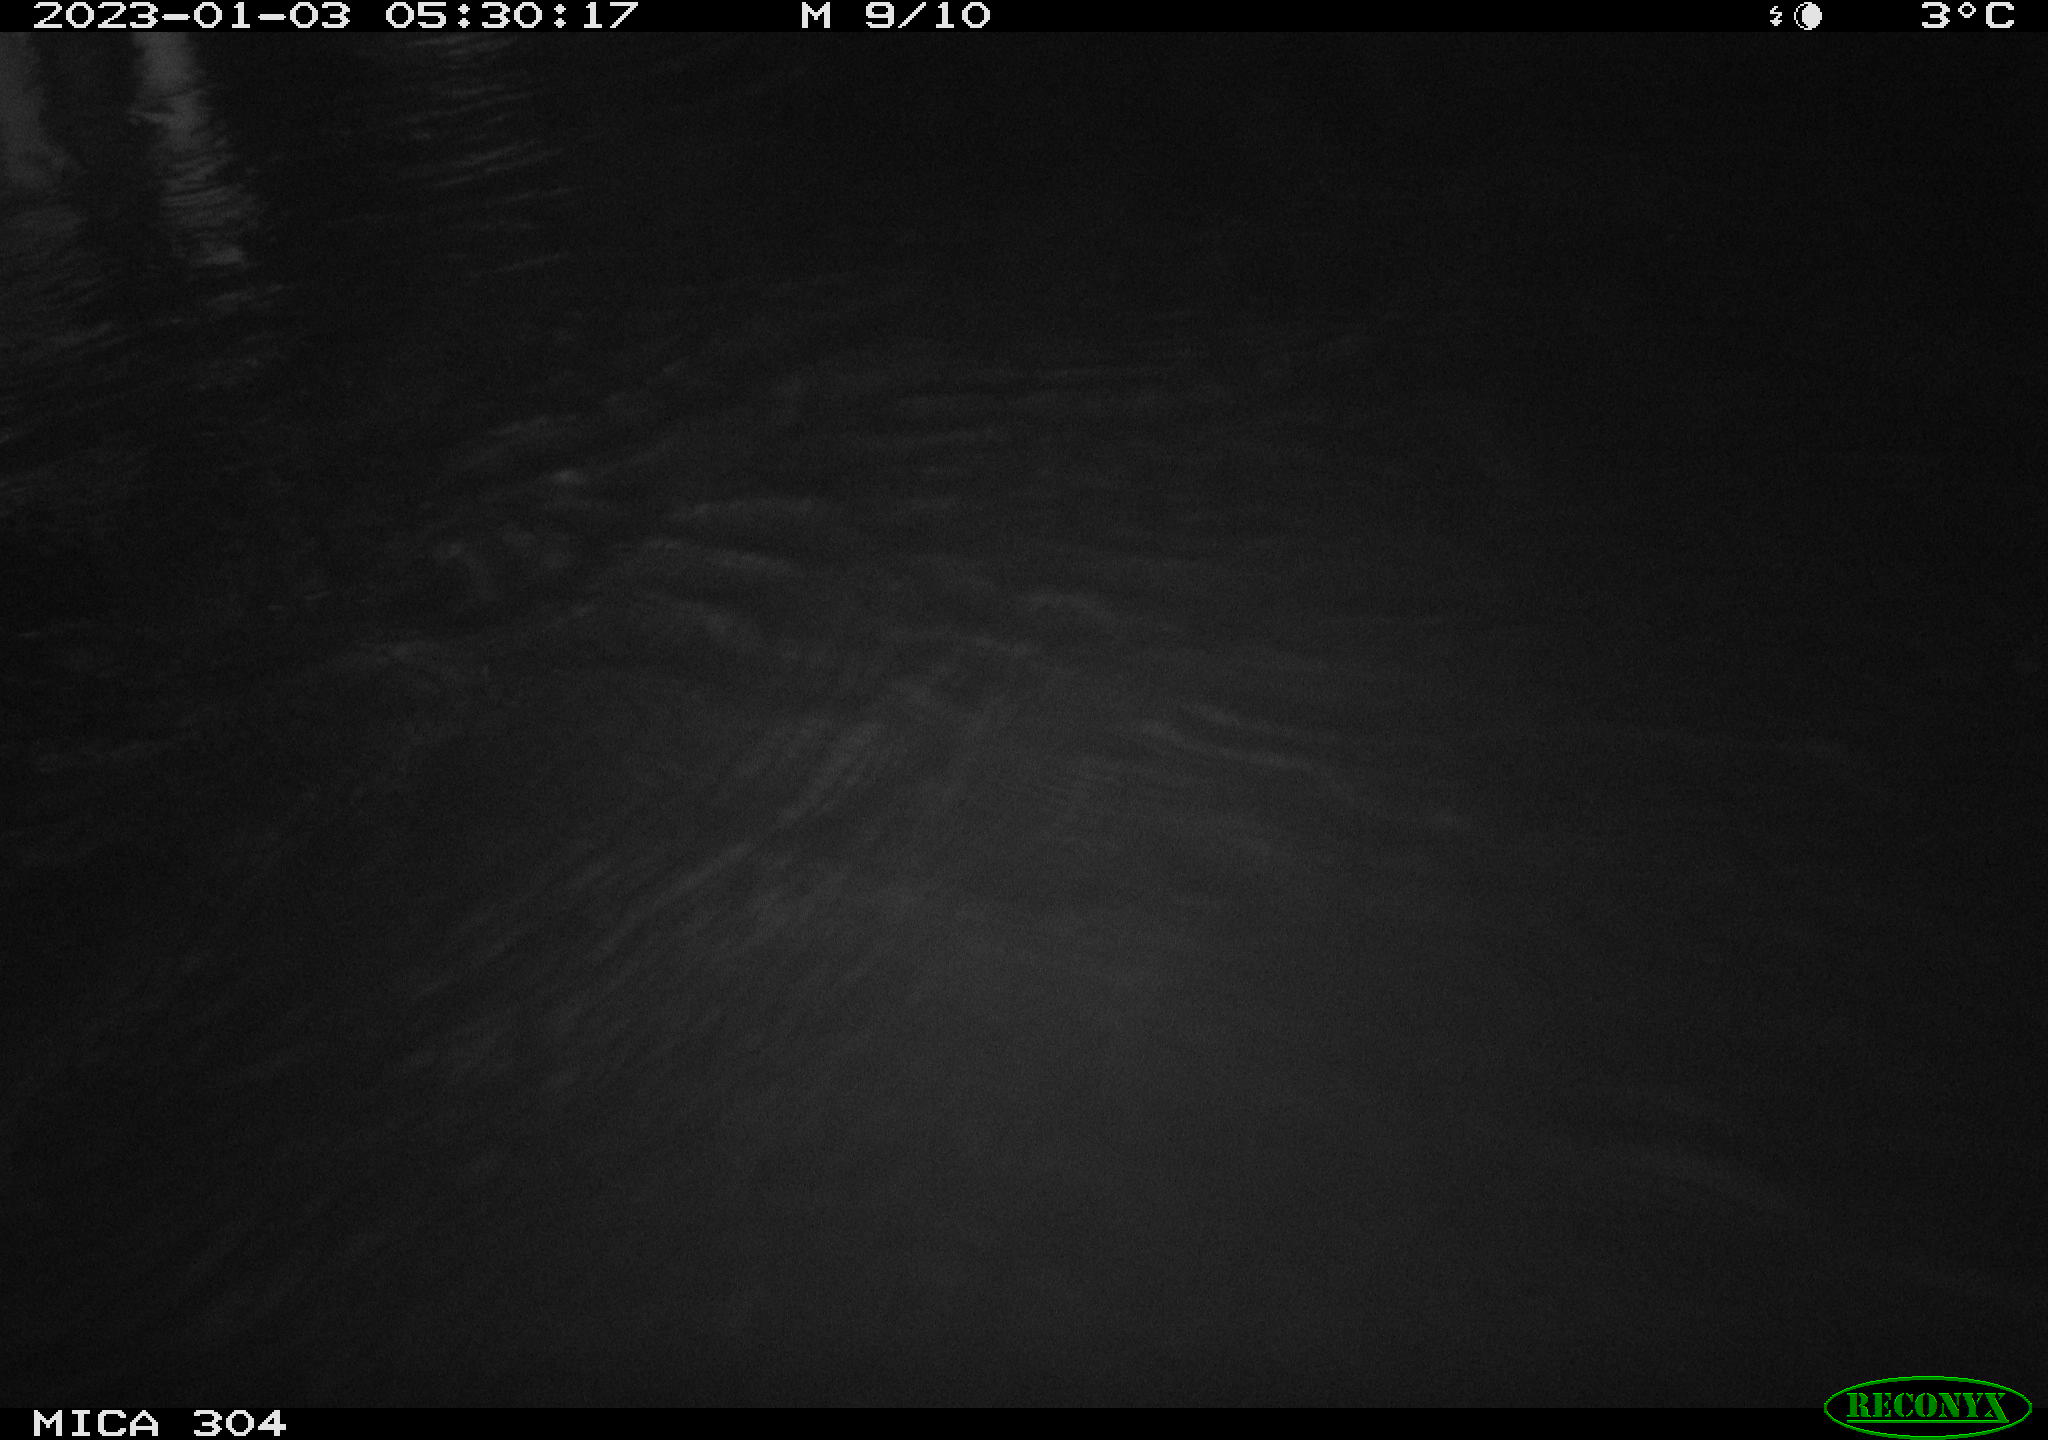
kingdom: Animalia
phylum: Chordata
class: Aves
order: Anseriformes
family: Anatidae
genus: Anas
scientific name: Anas
